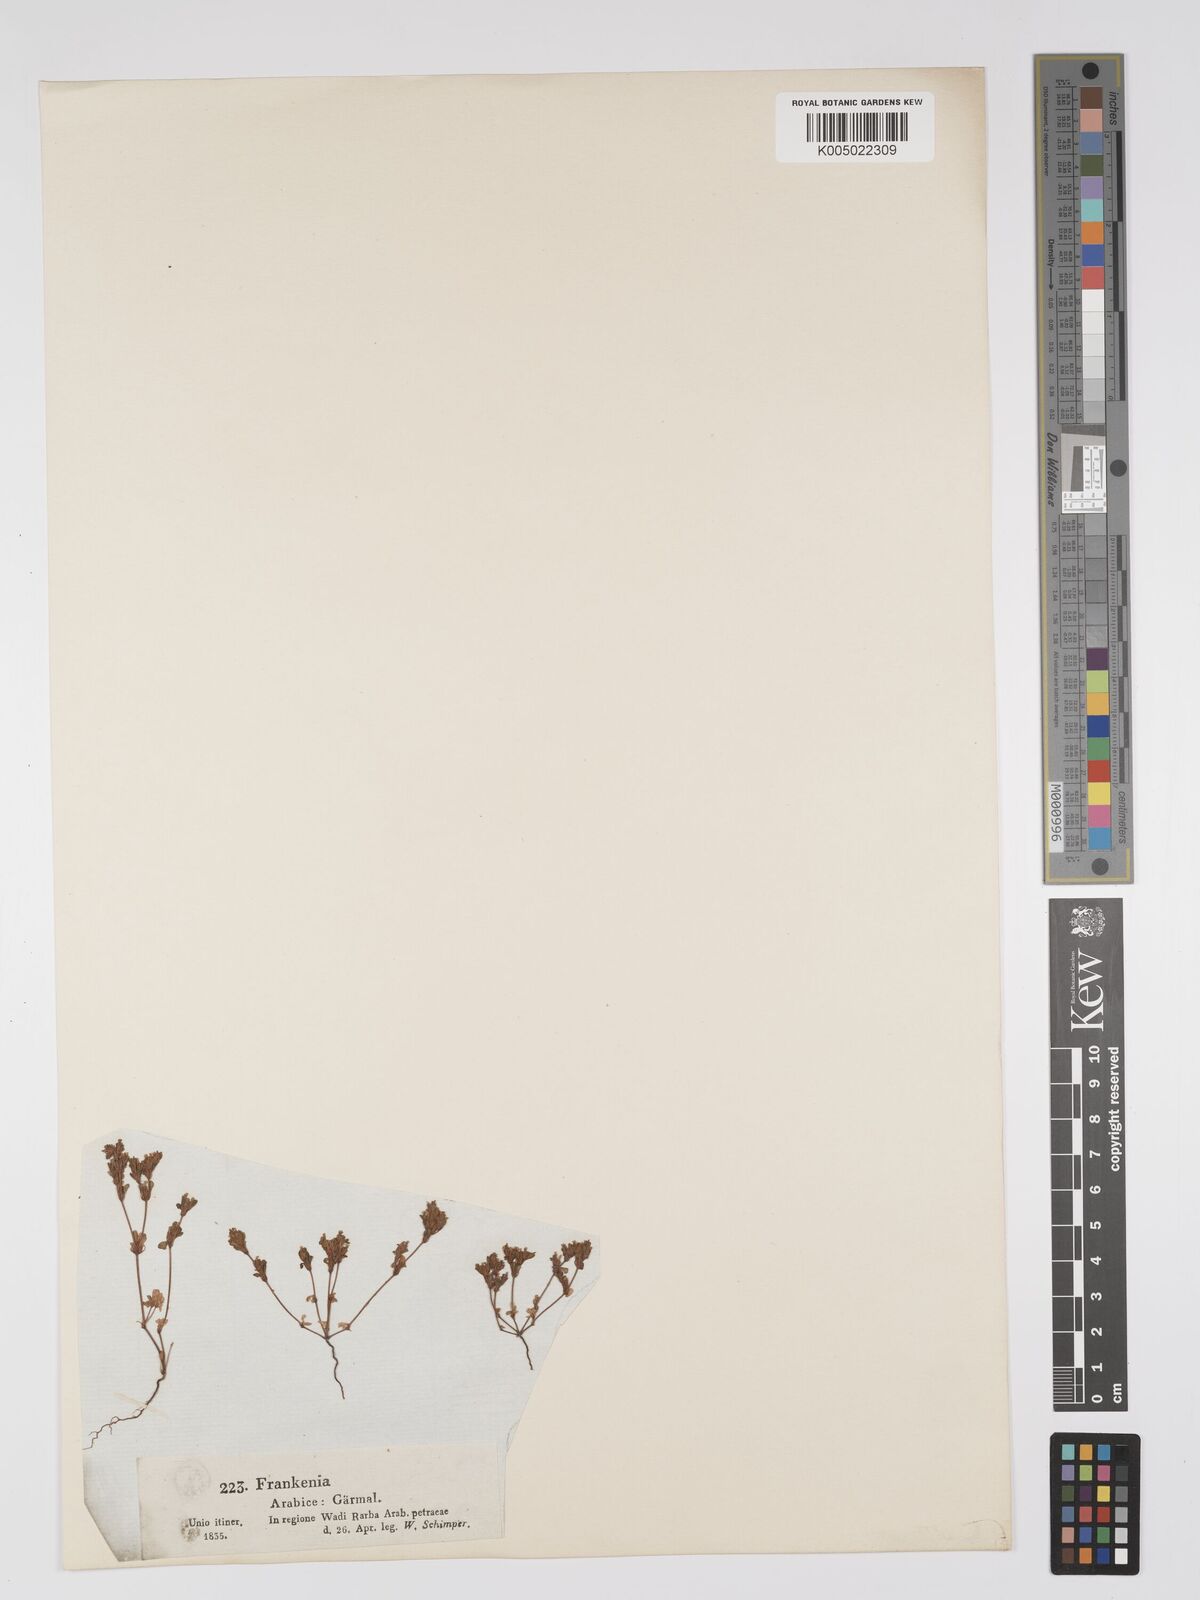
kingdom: Plantae
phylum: Tracheophyta
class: Magnoliopsida
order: Caryophyllales
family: Frankeniaceae
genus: Frankenia
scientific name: Frankenia pulverulenta
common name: European seaheath
